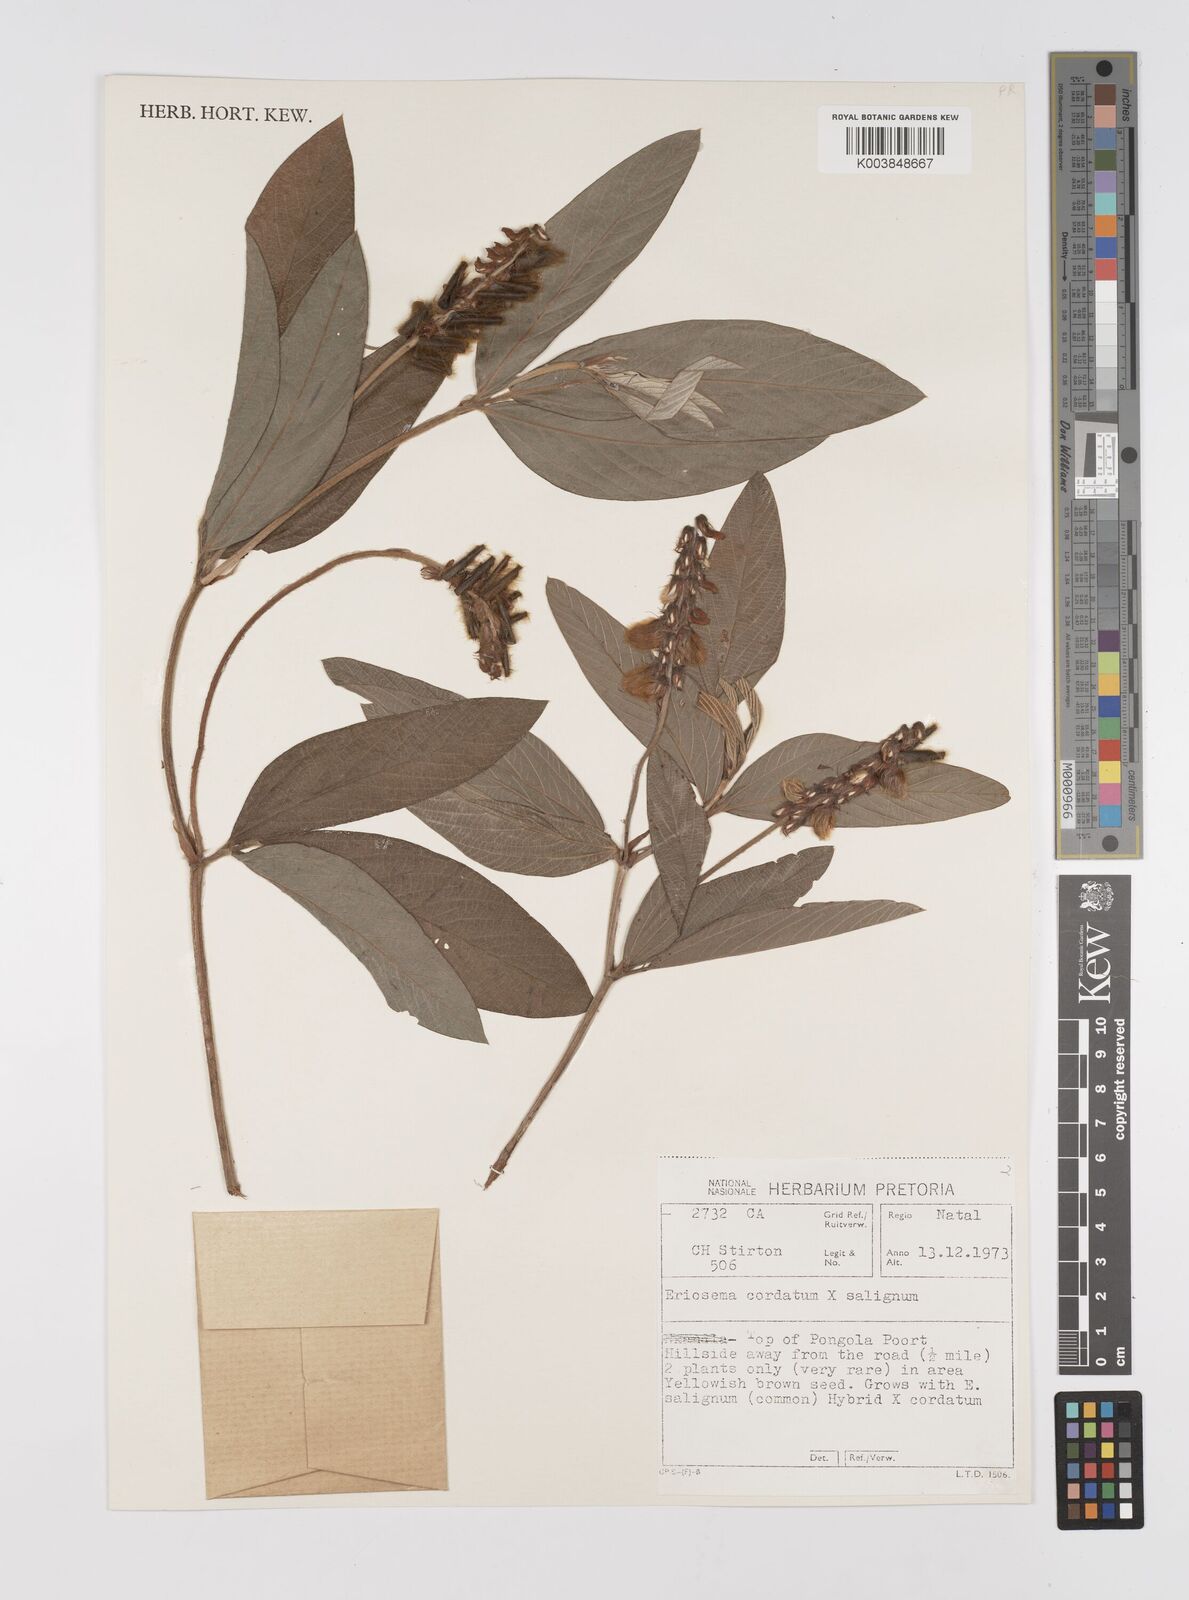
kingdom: Plantae
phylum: Tracheophyta
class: Magnoliopsida
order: Fabales
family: Fabaceae
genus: Eriosema
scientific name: Eriosema cordatum
